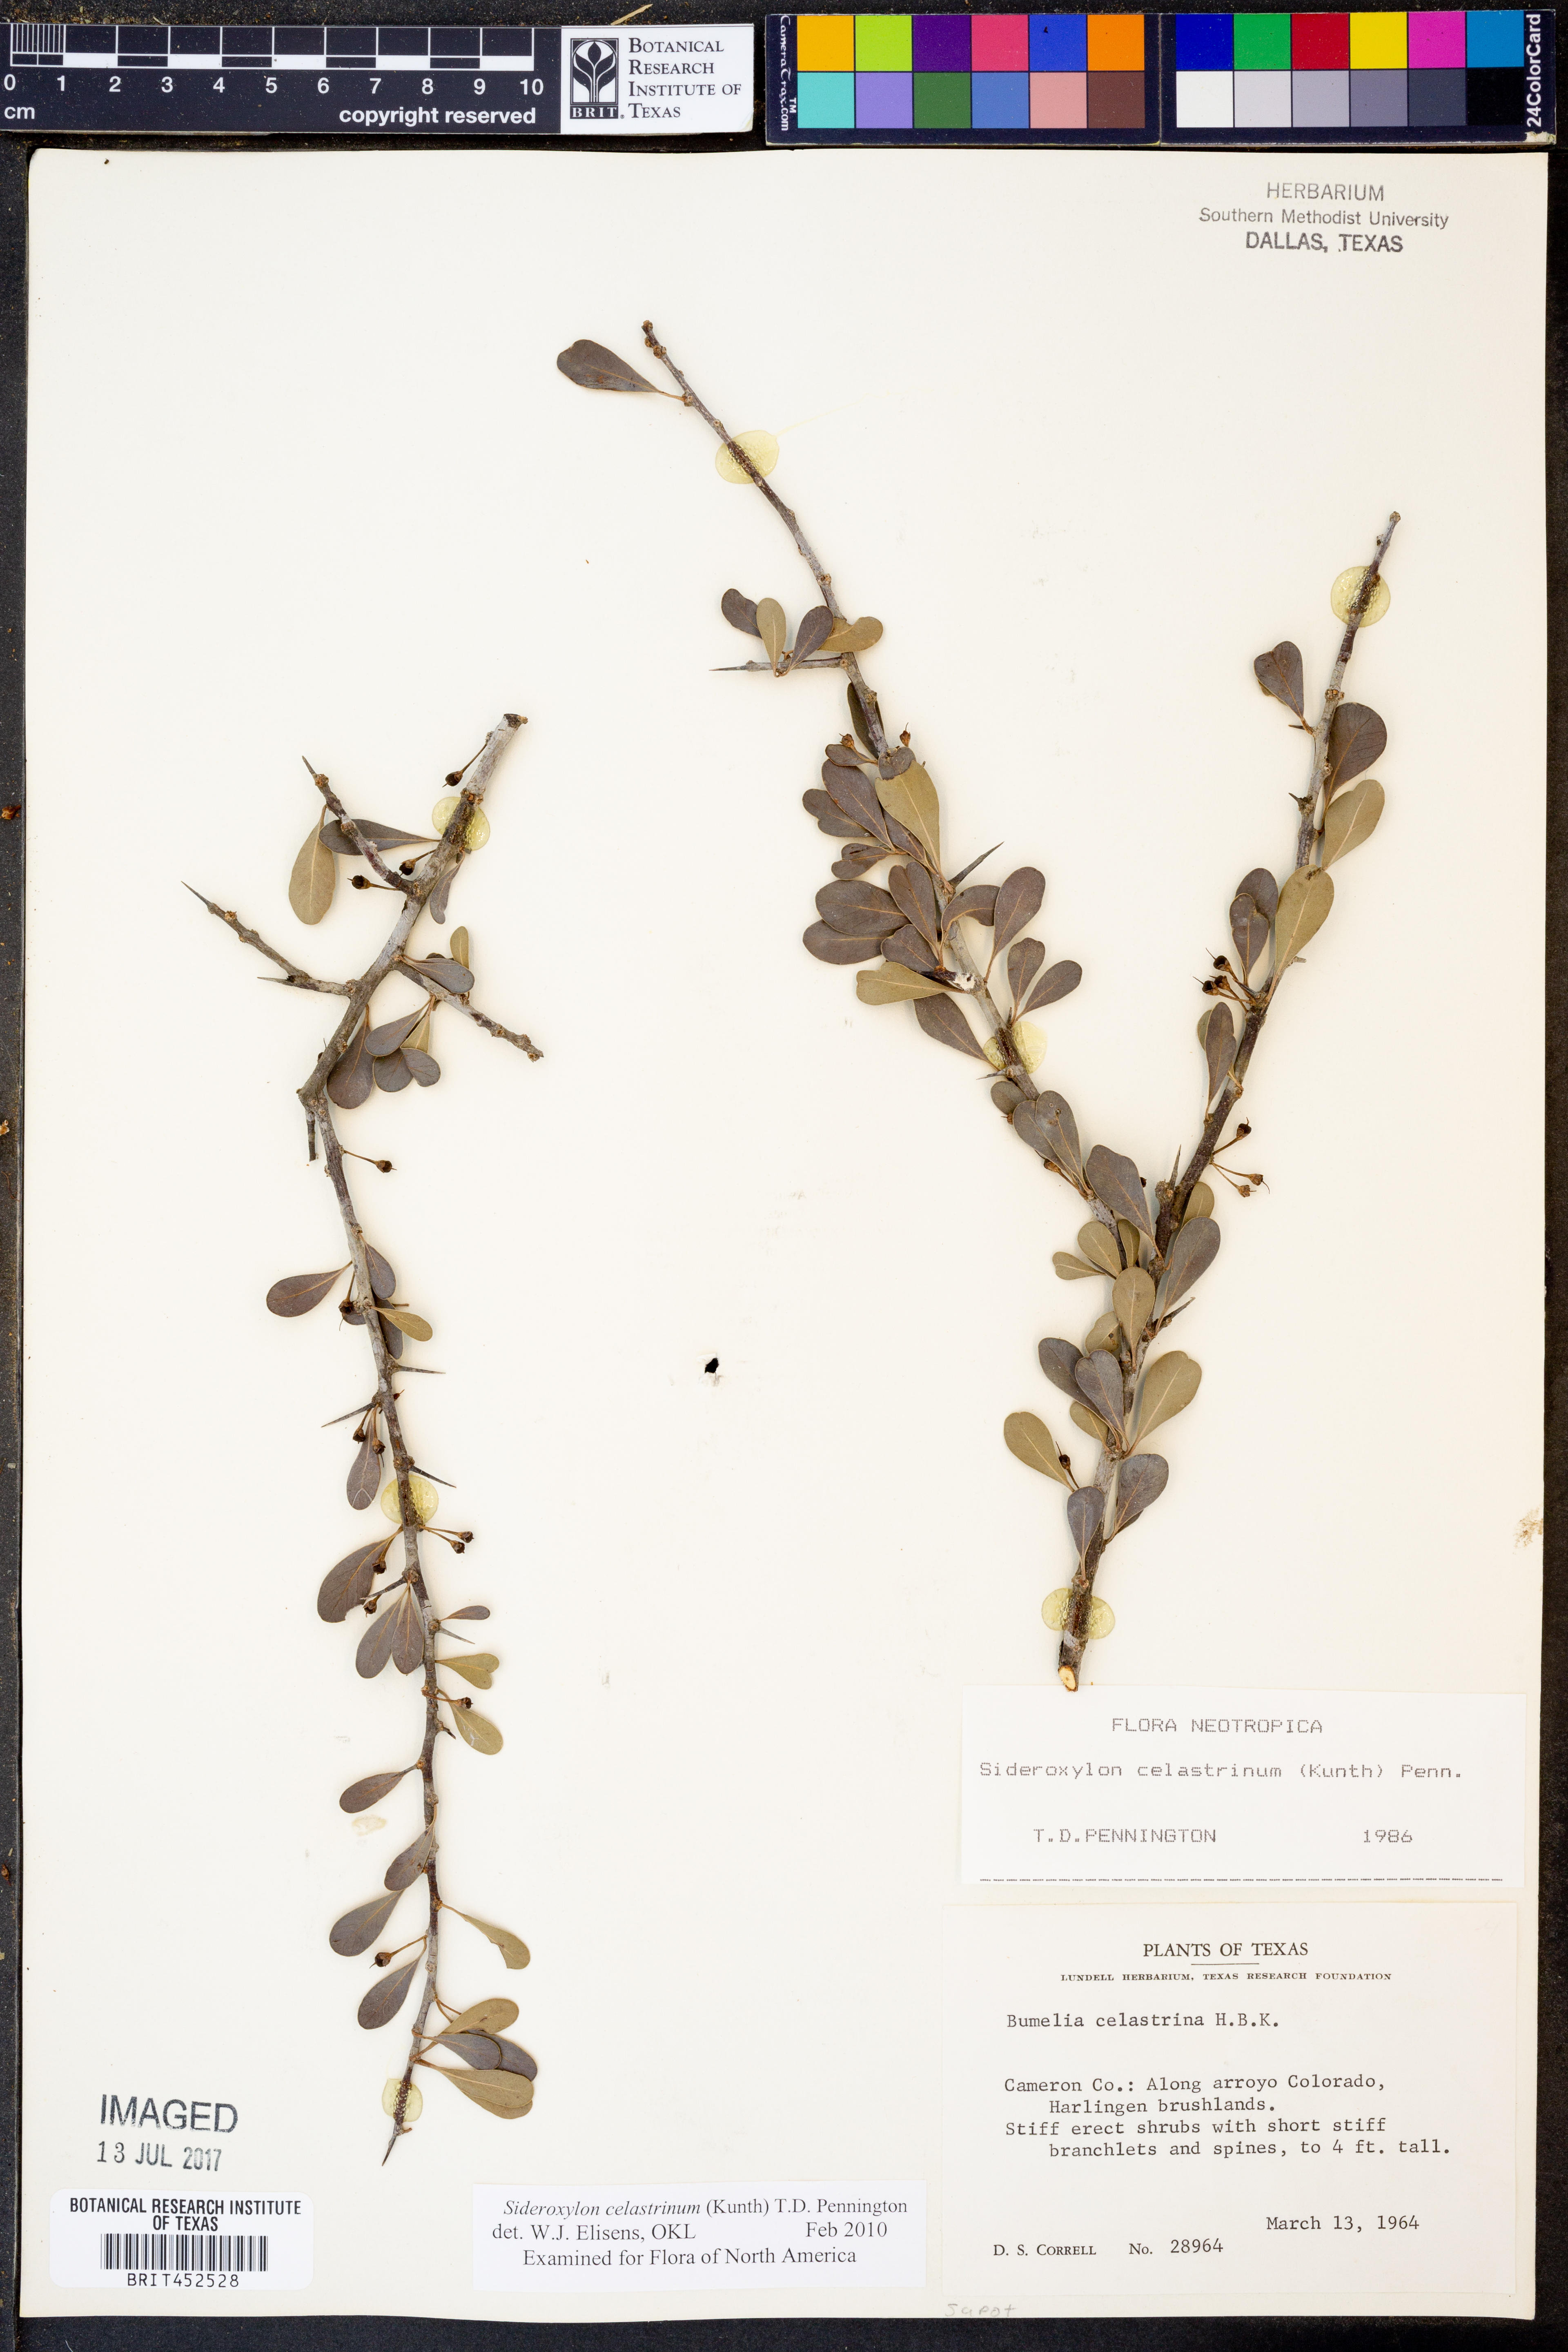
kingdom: Plantae
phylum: Tracheophyta
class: Magnoliopsida
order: Ericales
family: Sapotaceae
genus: Sideroxylon
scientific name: Sideroxylon celastrinum
